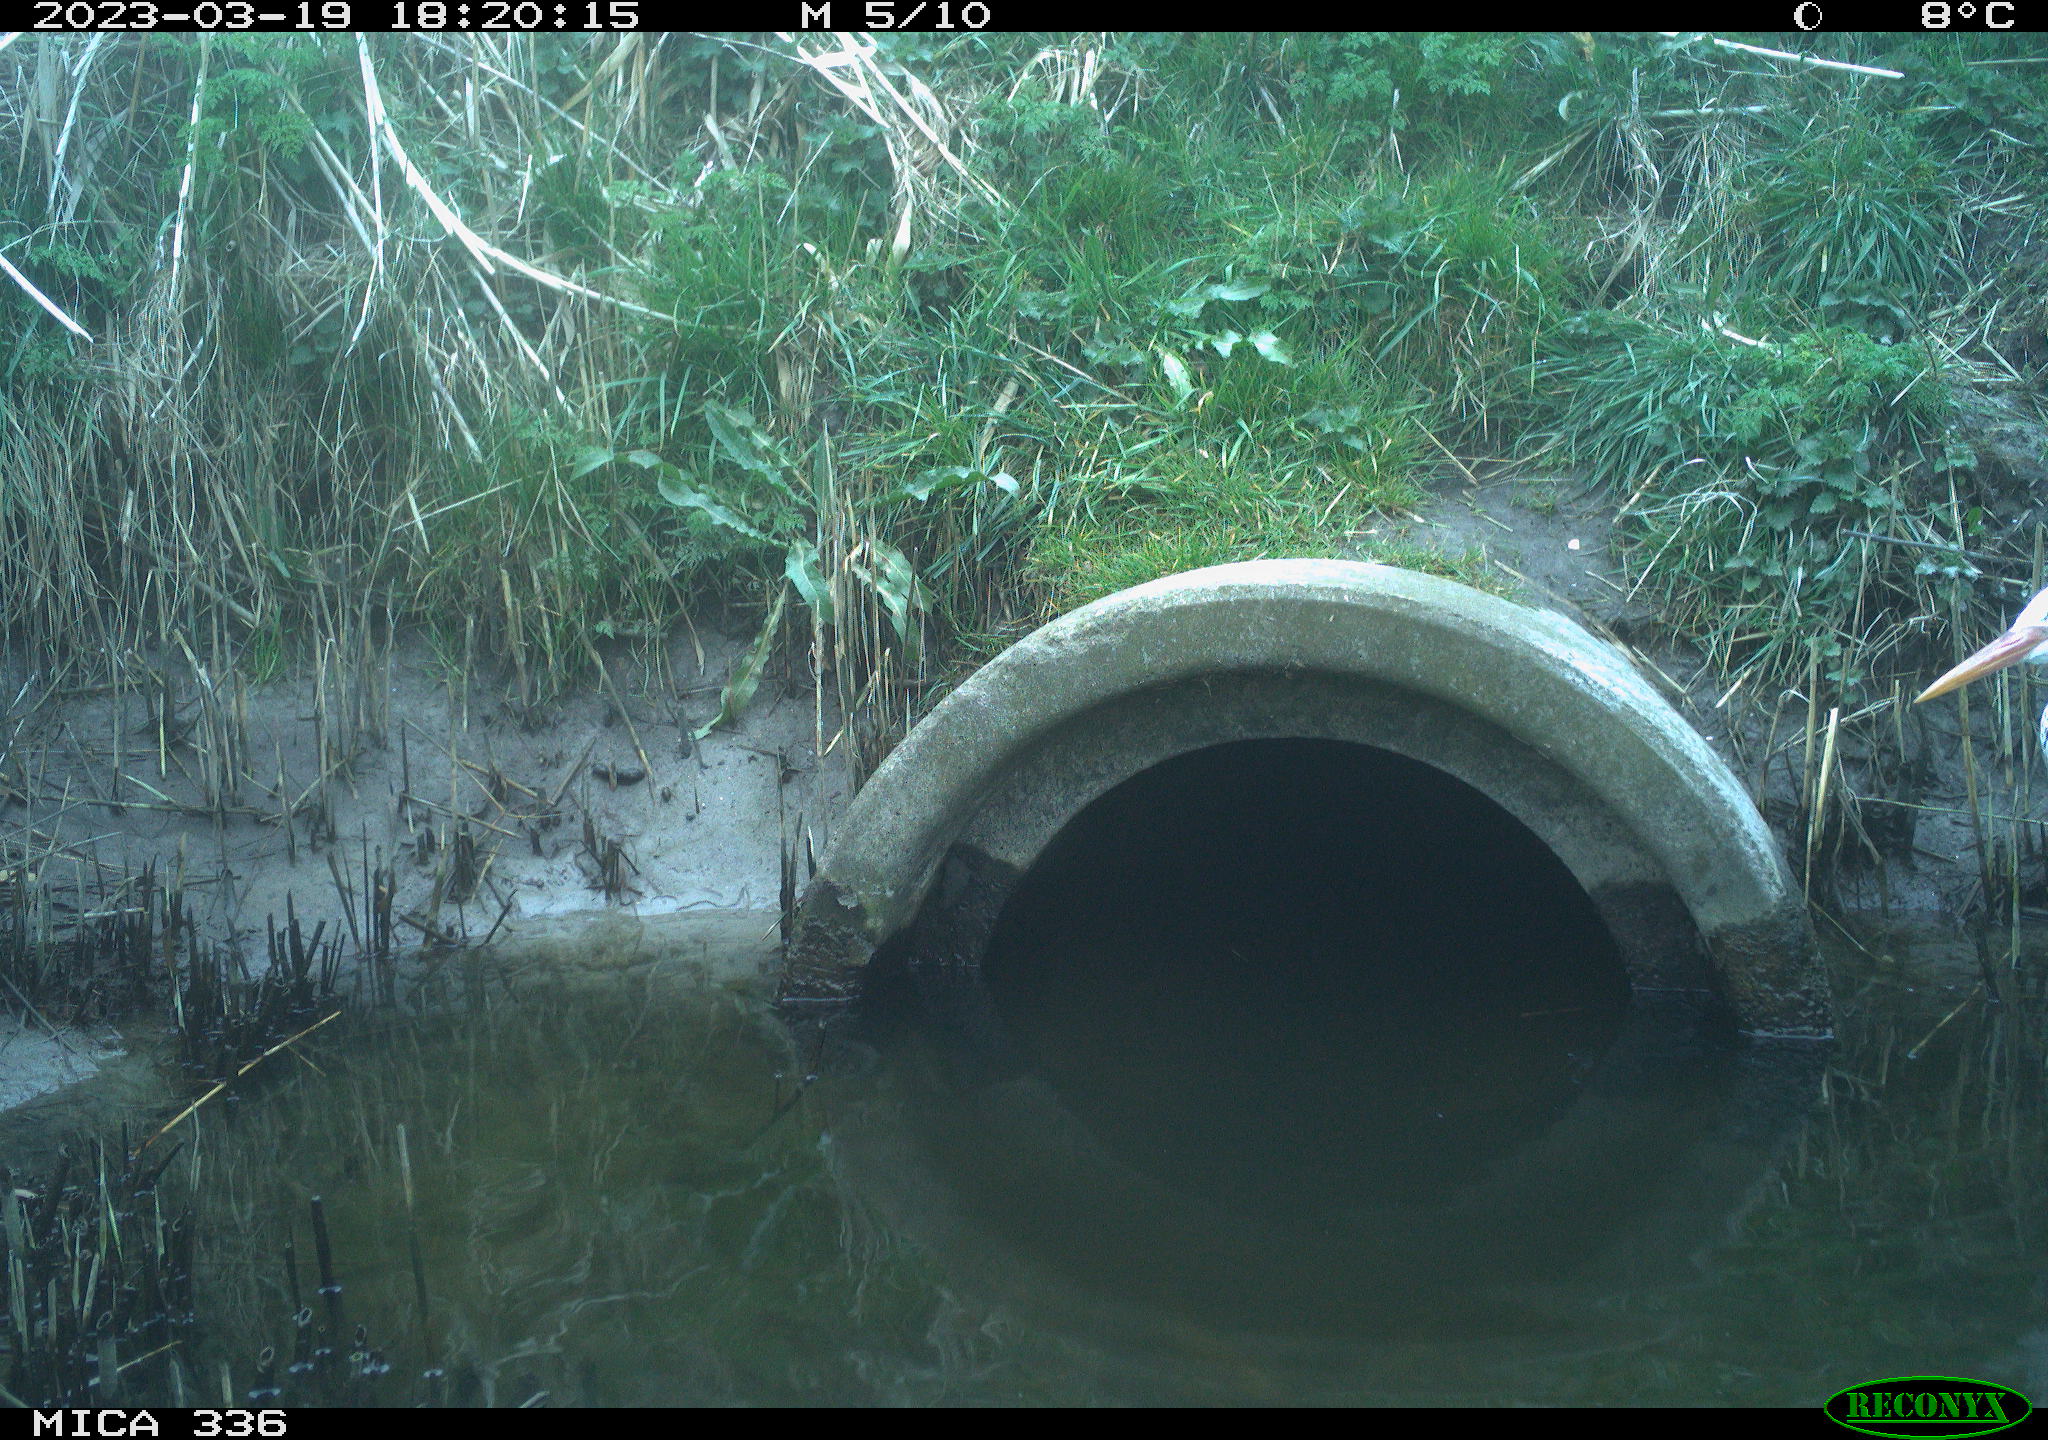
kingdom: Animalia
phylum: Chordata
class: Aves
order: Pelecaniformes
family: Ardeidae
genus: Ardea
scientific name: Ardea cinerea
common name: Grey heron
